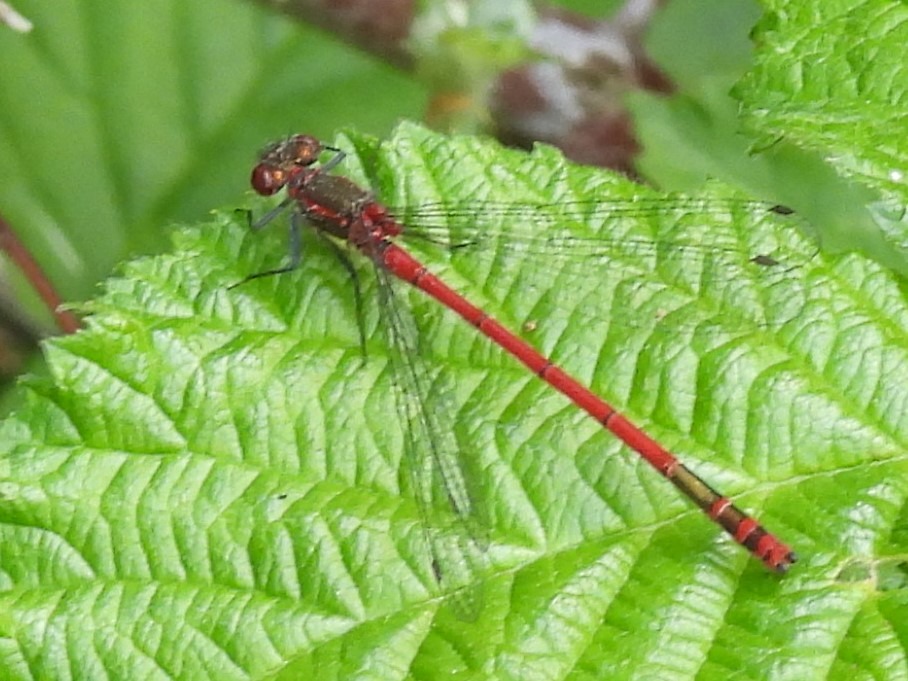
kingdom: Animalia
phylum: Arthropoda
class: Insecta
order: Odonata
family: Coenagrionidae
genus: Pyrrhosoma
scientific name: Pyrrhosoma nymphula
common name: Rød vandnymfe
